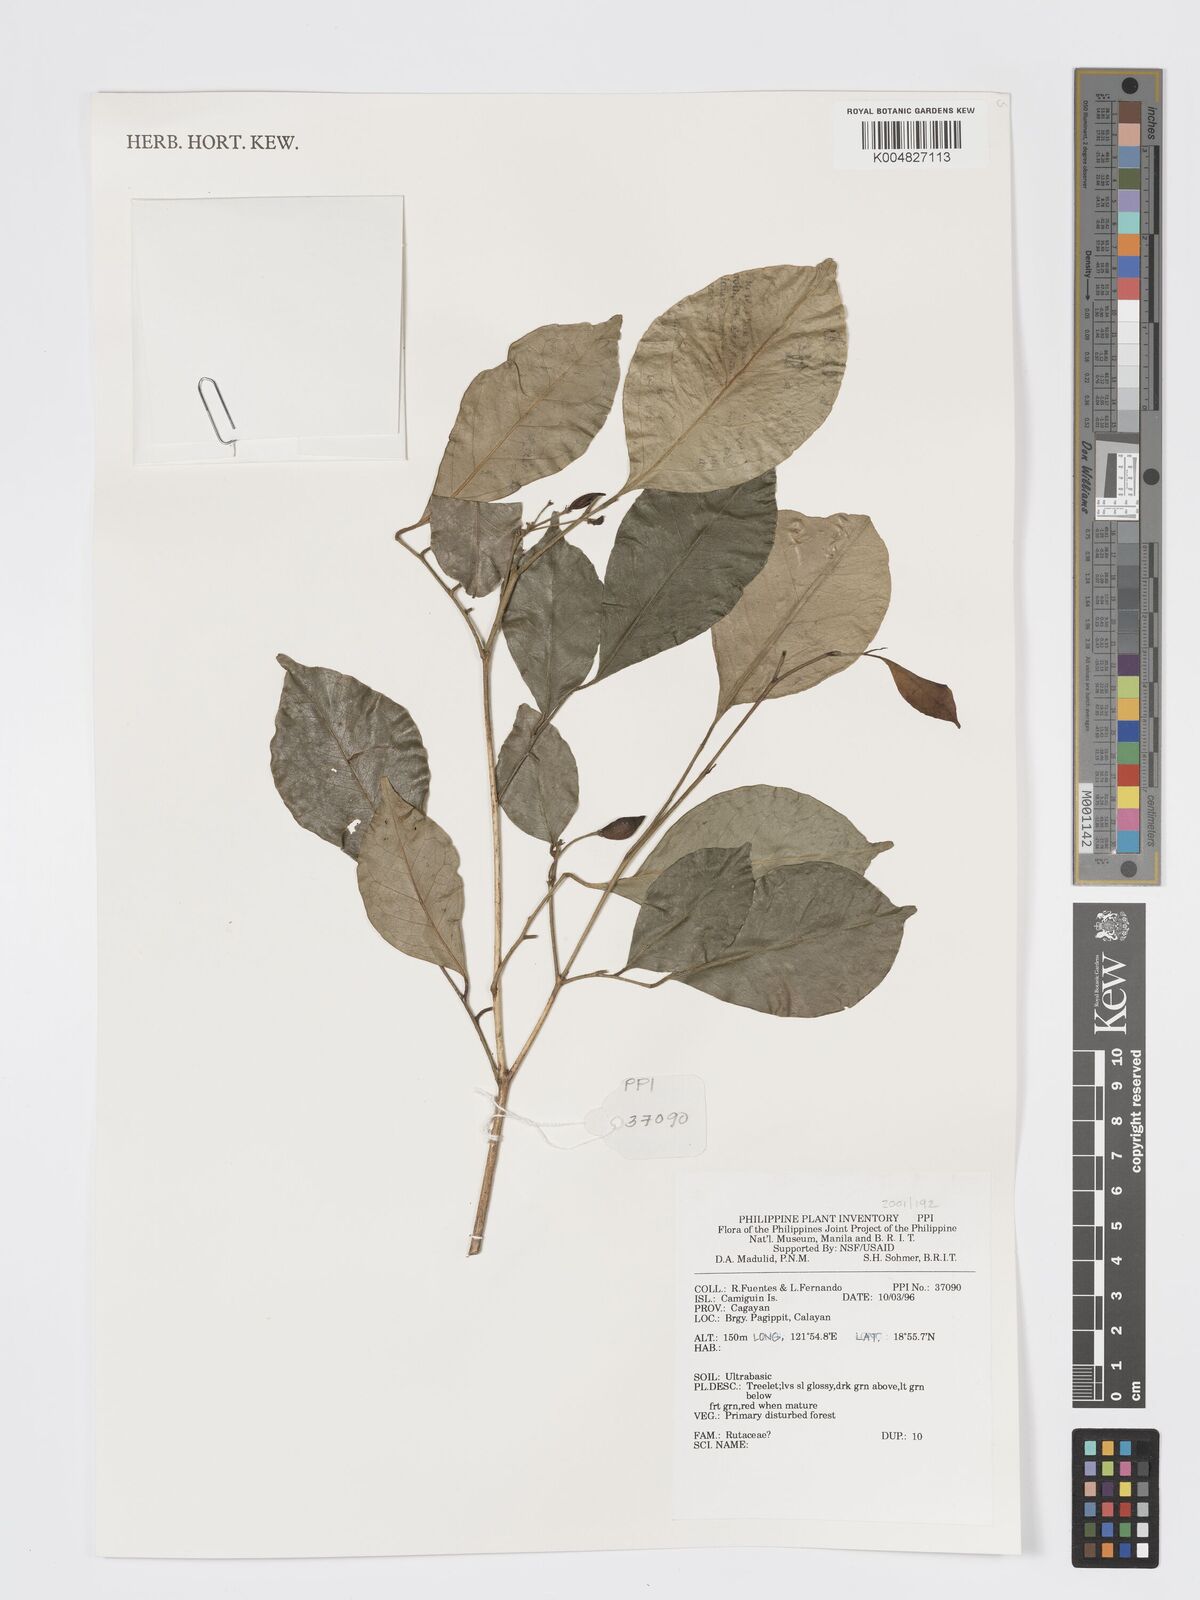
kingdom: Plantae
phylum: Tracheophyta
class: Magnoliopsida
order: Sapindales
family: Rutaceae
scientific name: Rutaceae
